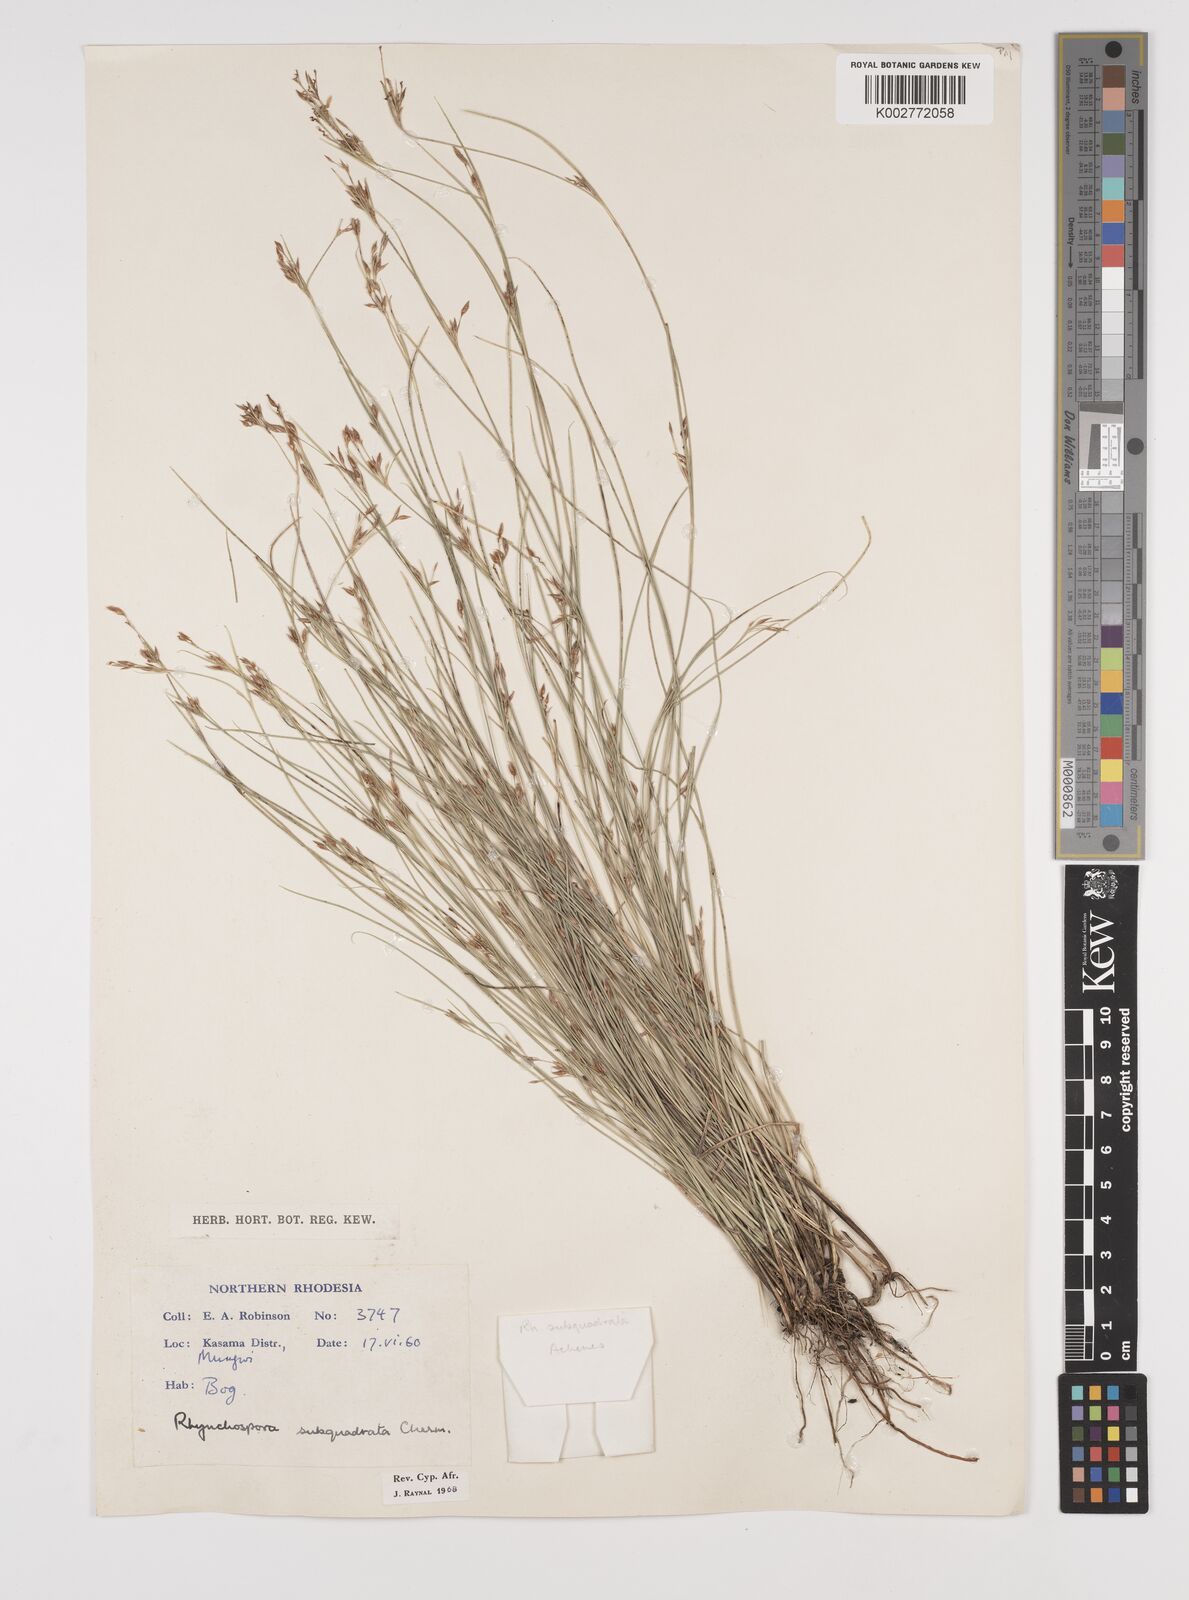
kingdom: Plantae
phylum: Tracheophyta
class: Liliopsida
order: Poales
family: Cyperaceae
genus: Rhynchospora
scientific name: Rhynchospora gracillima
